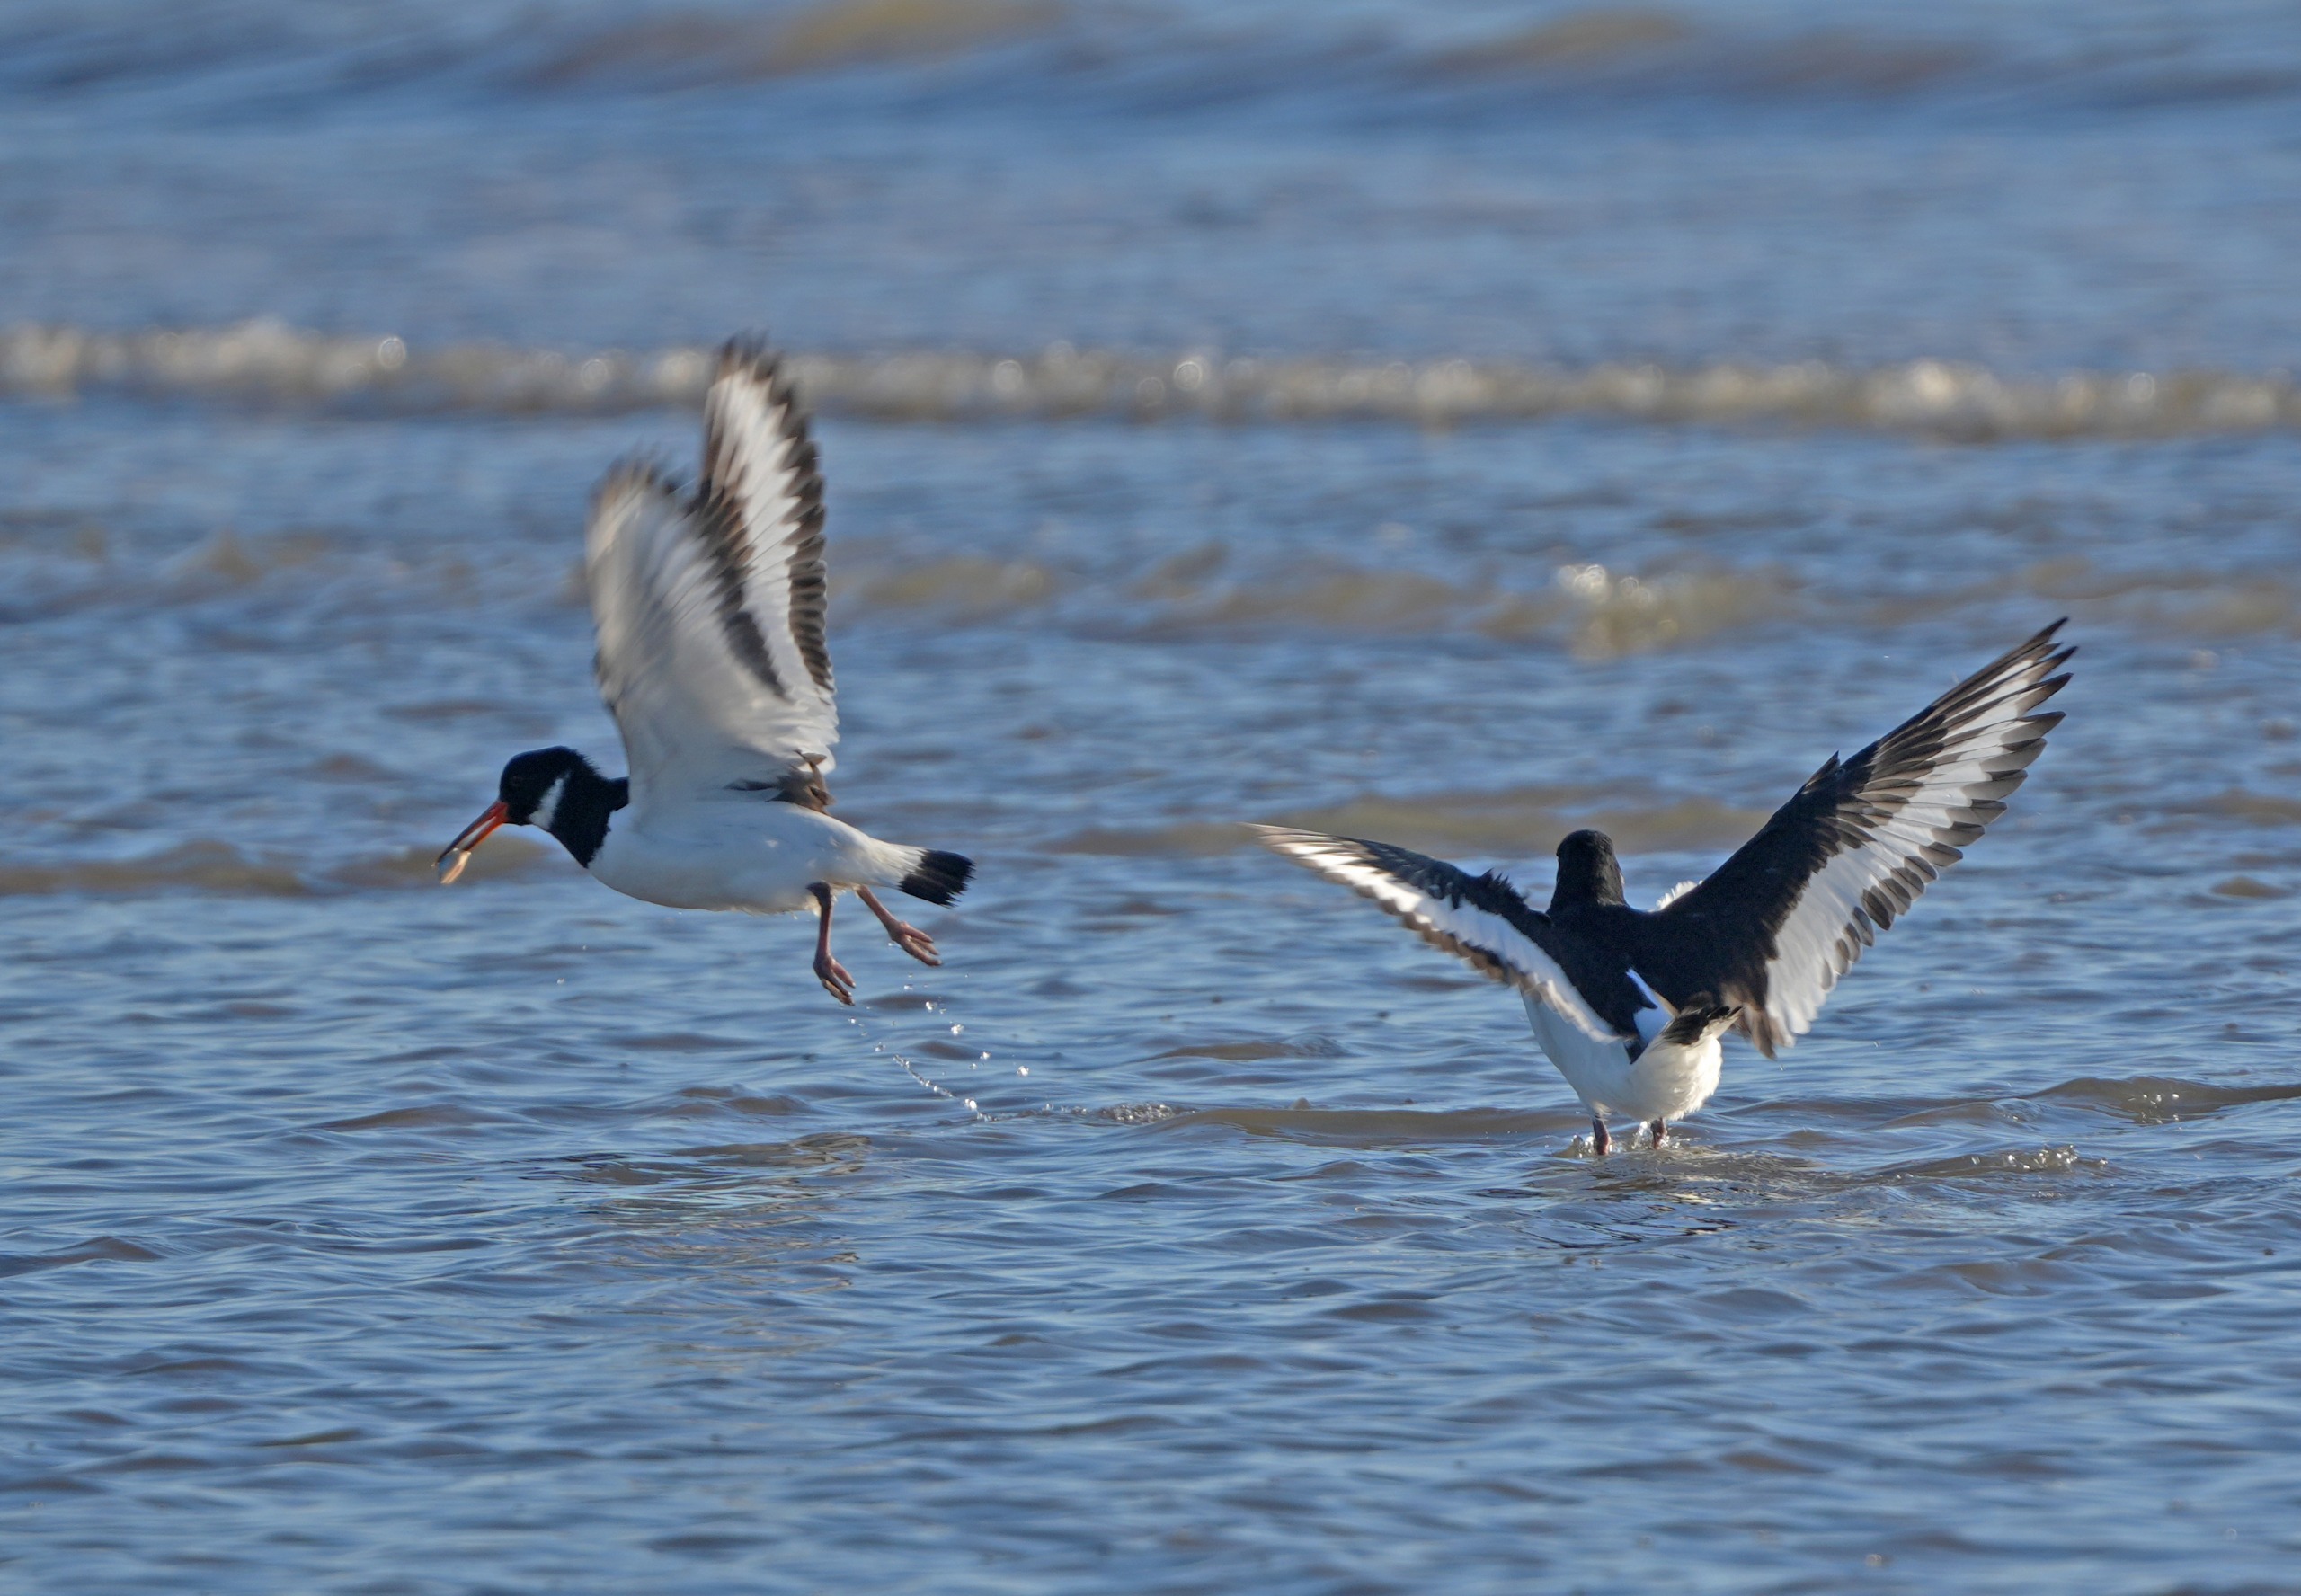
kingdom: Animalia
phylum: Chordata
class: Aves
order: Charadriiformes
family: Haematopodidae
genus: Haematopus
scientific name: Haematopus ostralegus
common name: Strandskade
